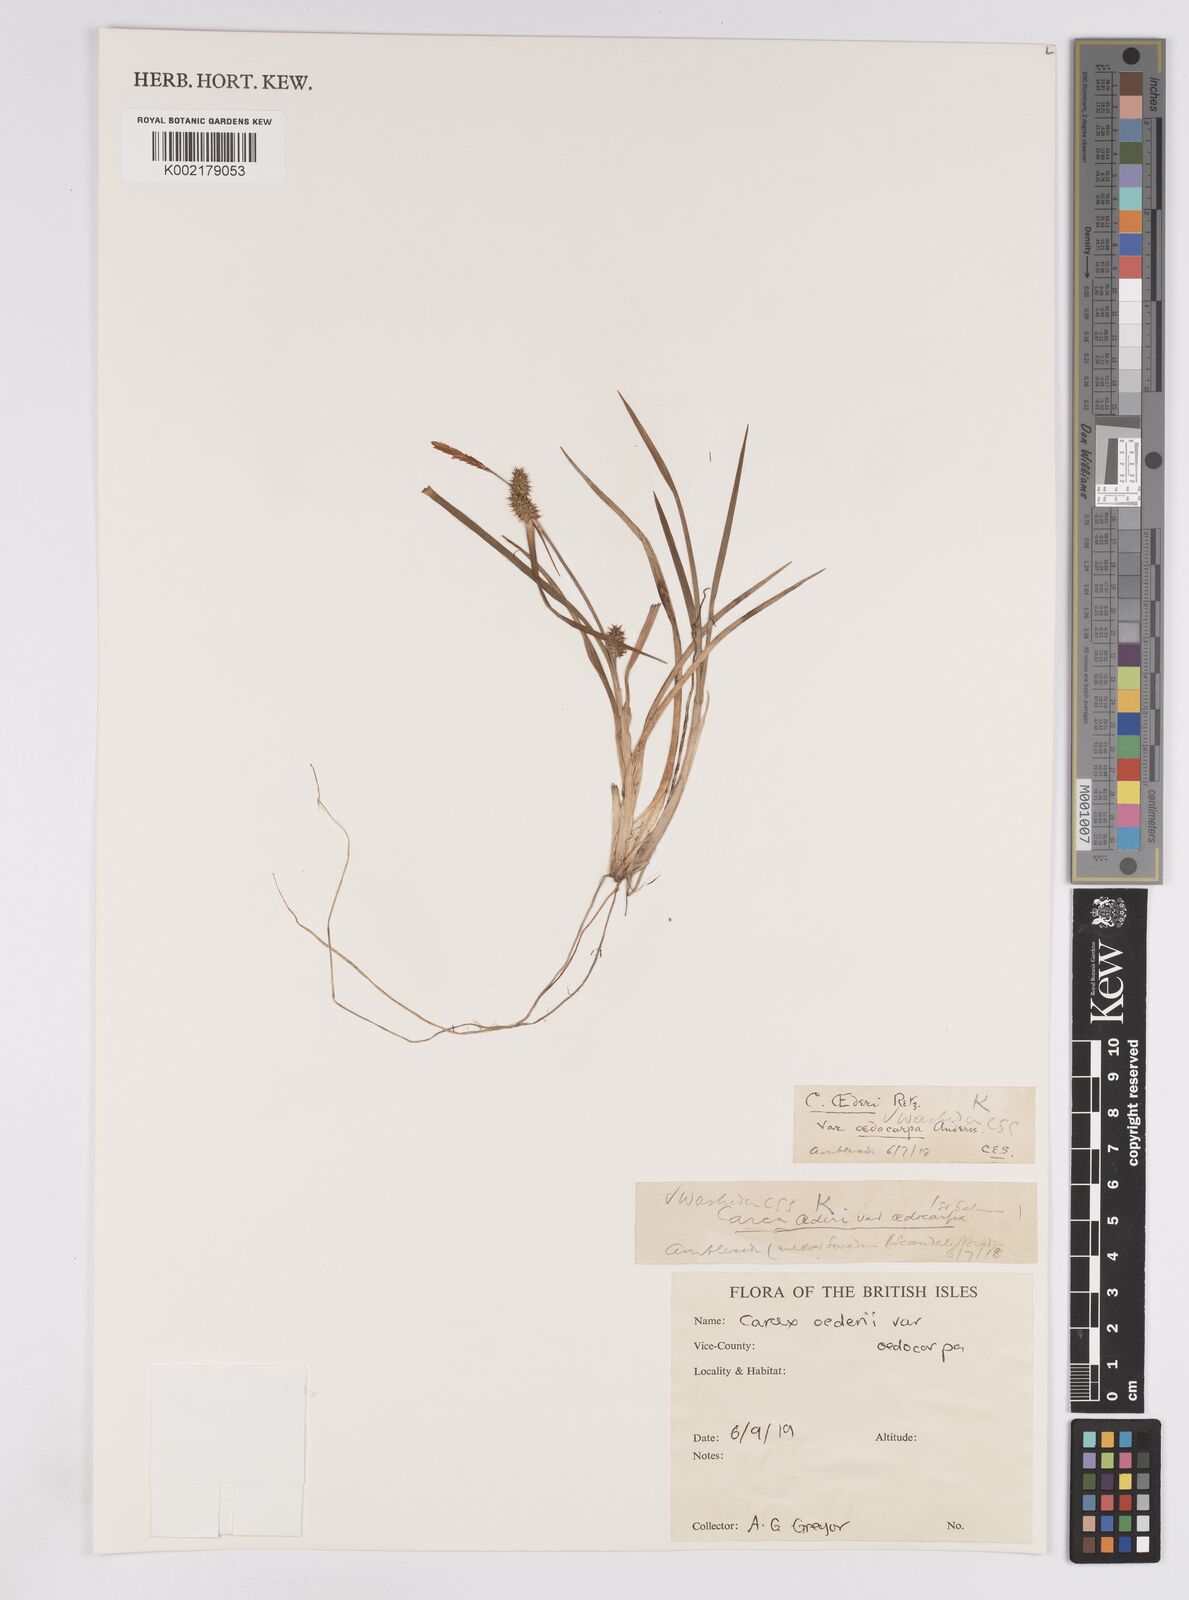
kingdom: Plantae
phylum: Tracheophyta
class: Liliopsida
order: Poales
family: Cyperaceae
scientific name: Cyperaceae
